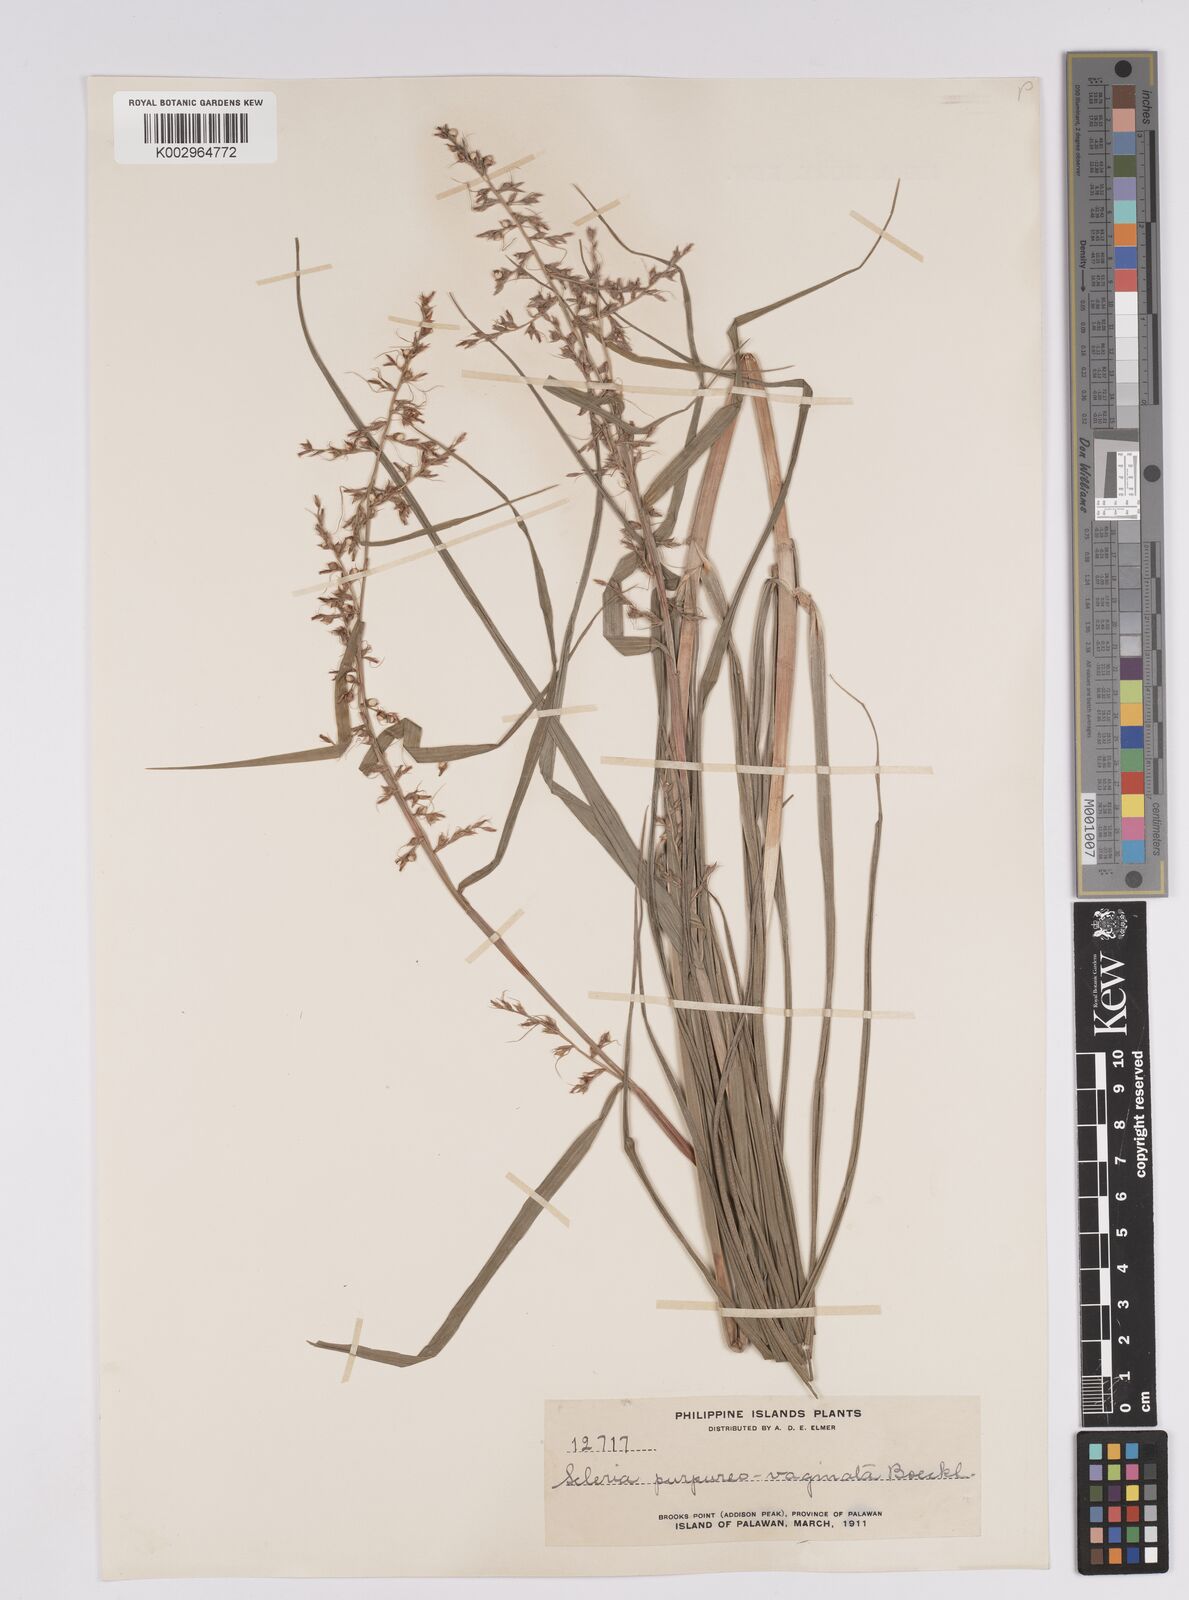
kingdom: Plantae
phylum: Tracheophyta
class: Liliopsida
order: Poales
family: Cyperaceae
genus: Scleria
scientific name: Scleria scrobiculata
